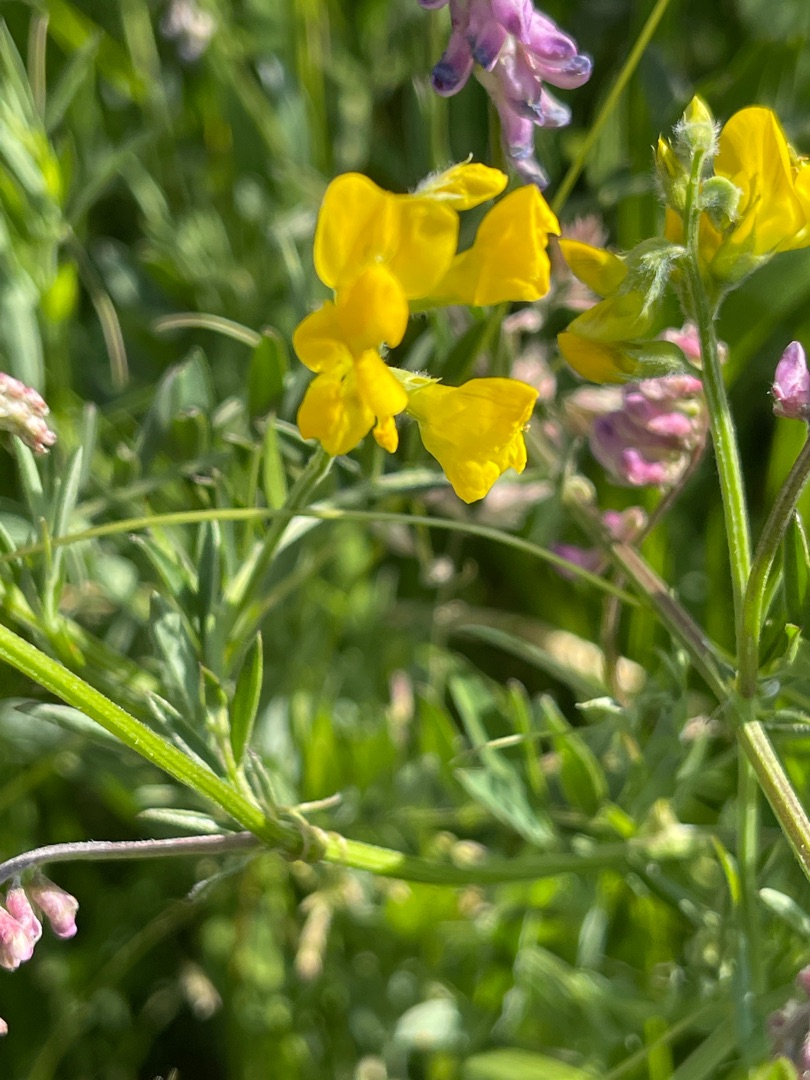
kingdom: Plantae
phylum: Tracheophyta
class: Magnoliopsida
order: Fabales
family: Fabaceae
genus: Lathyrus
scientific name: Lathyrus pratensis
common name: Gul fladbælg
